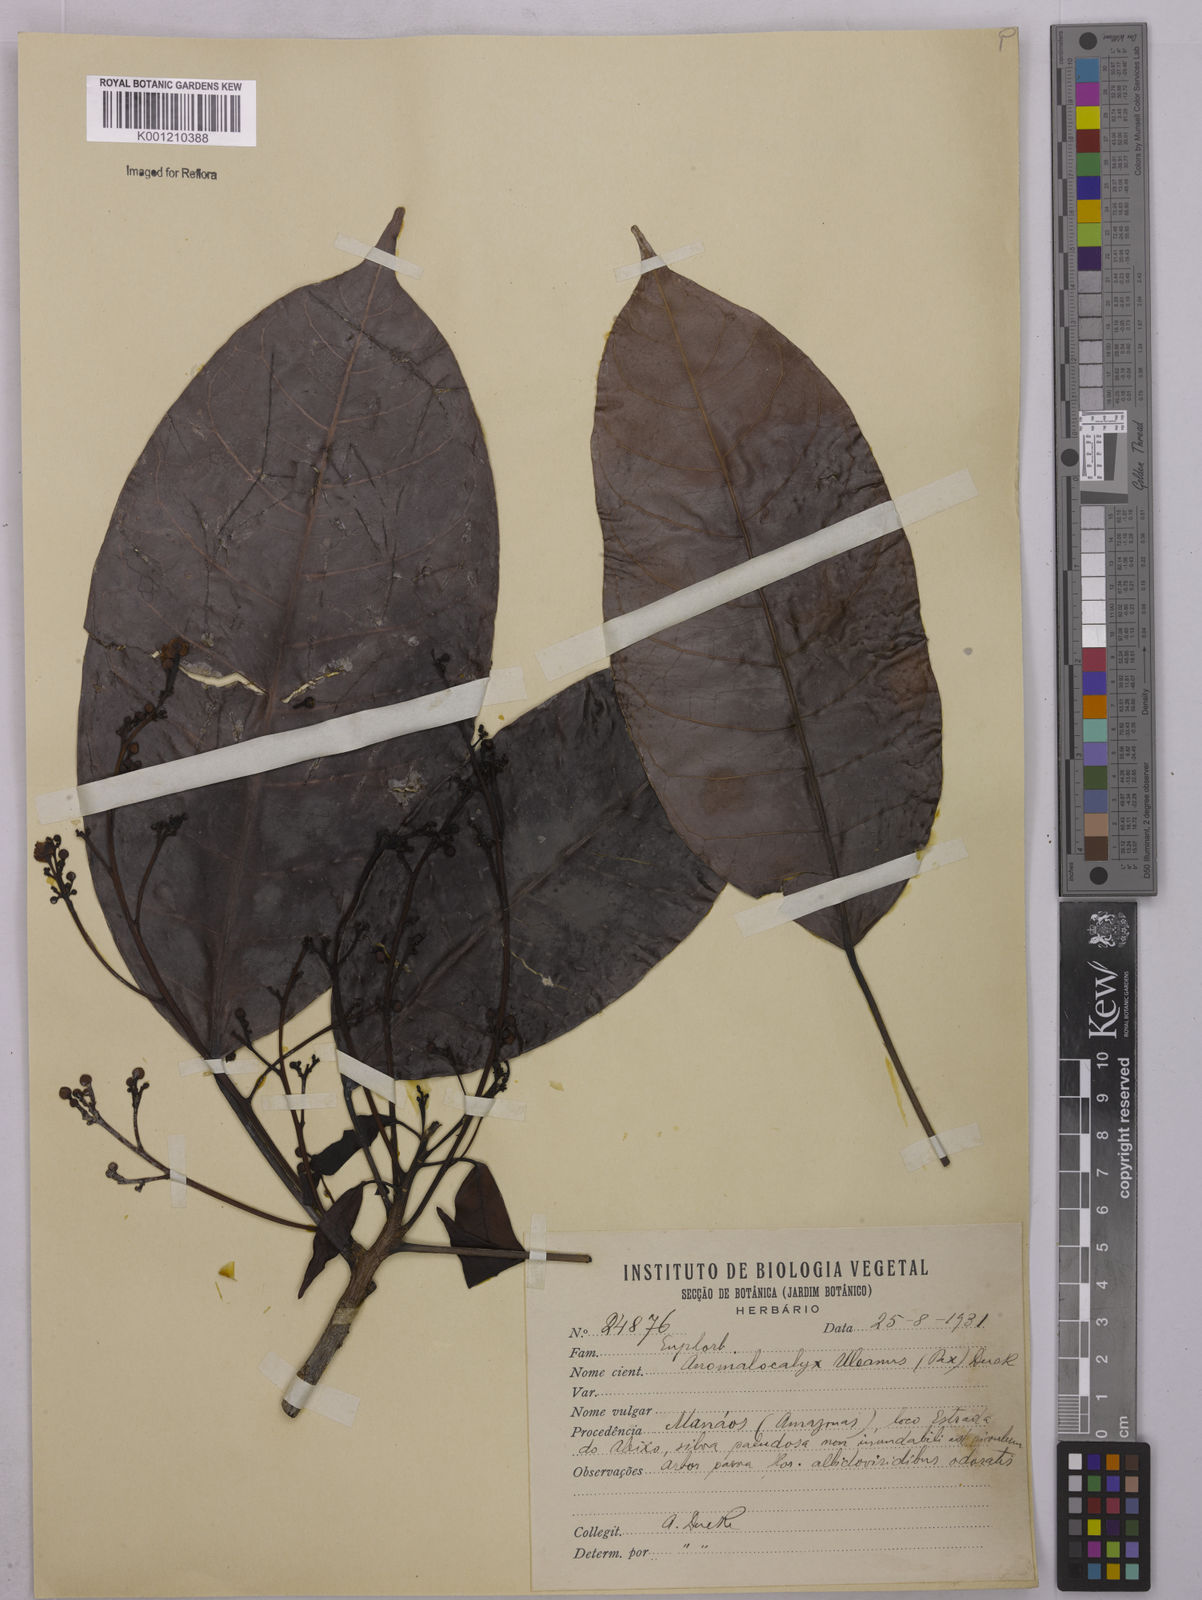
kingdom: Plantae
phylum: Tracheophyta
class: Magnoliopsida
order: Malpighiales
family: Euphorbiaceae
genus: Dodecastigma
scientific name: Dodecastigma uleanum
